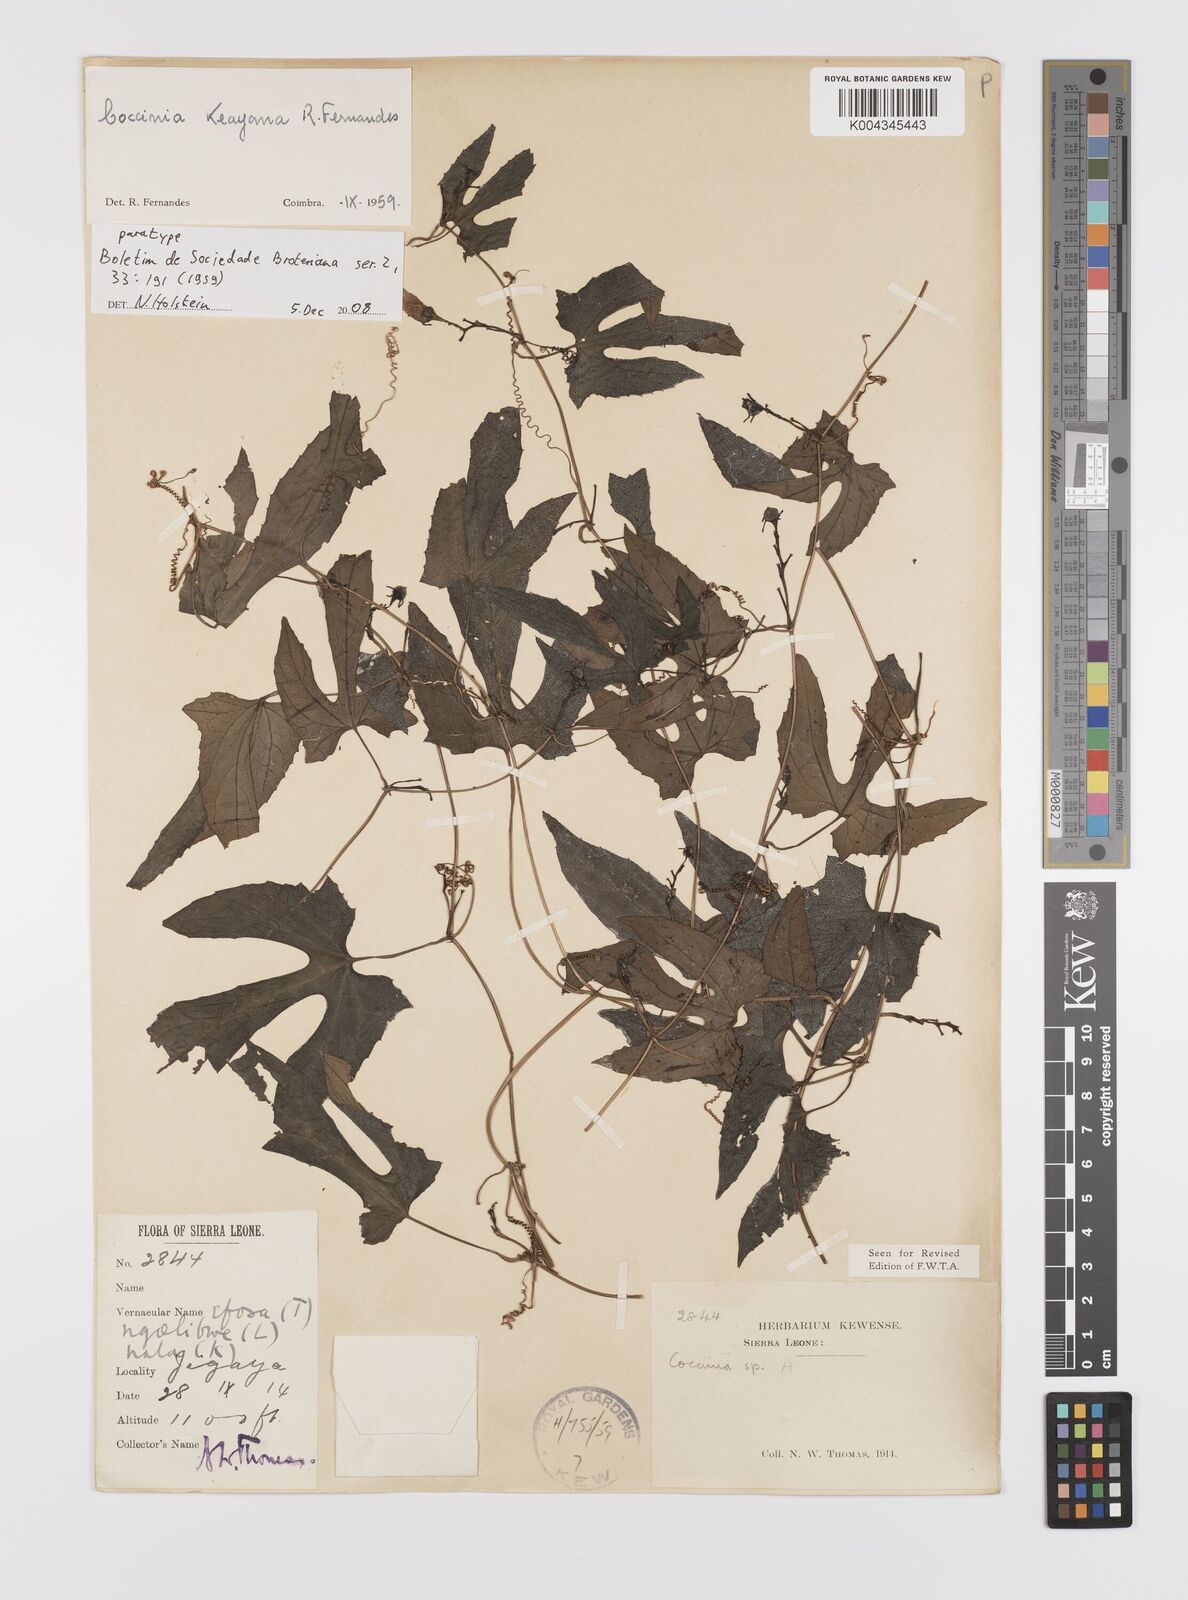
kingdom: Plantae
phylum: Tracheophyta
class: Magnoliopsida
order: Cucurbitales
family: Cucurbitaceae
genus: Coccinia
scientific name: Coccinia keayana
